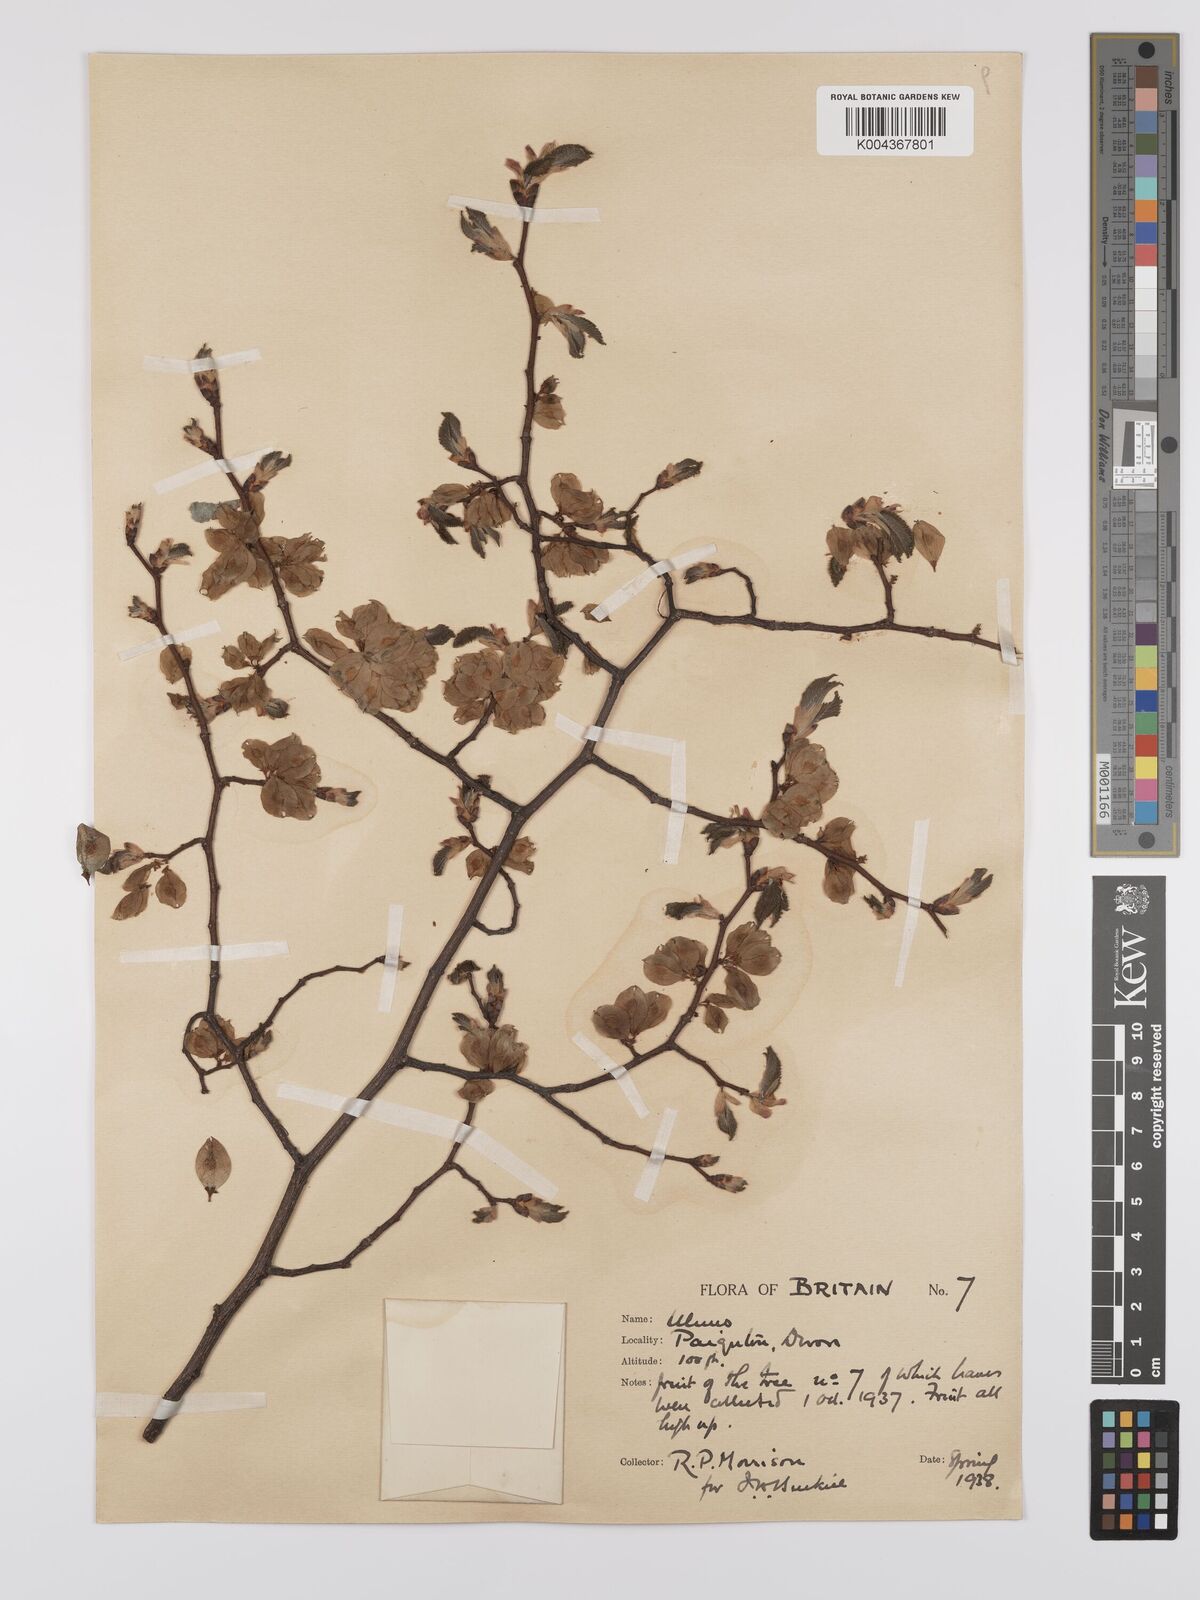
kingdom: Plantae
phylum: Tracheophyta
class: Magnoliopsida
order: Rosales
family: Ulmaceae
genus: Ulmus
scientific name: Ulmus
